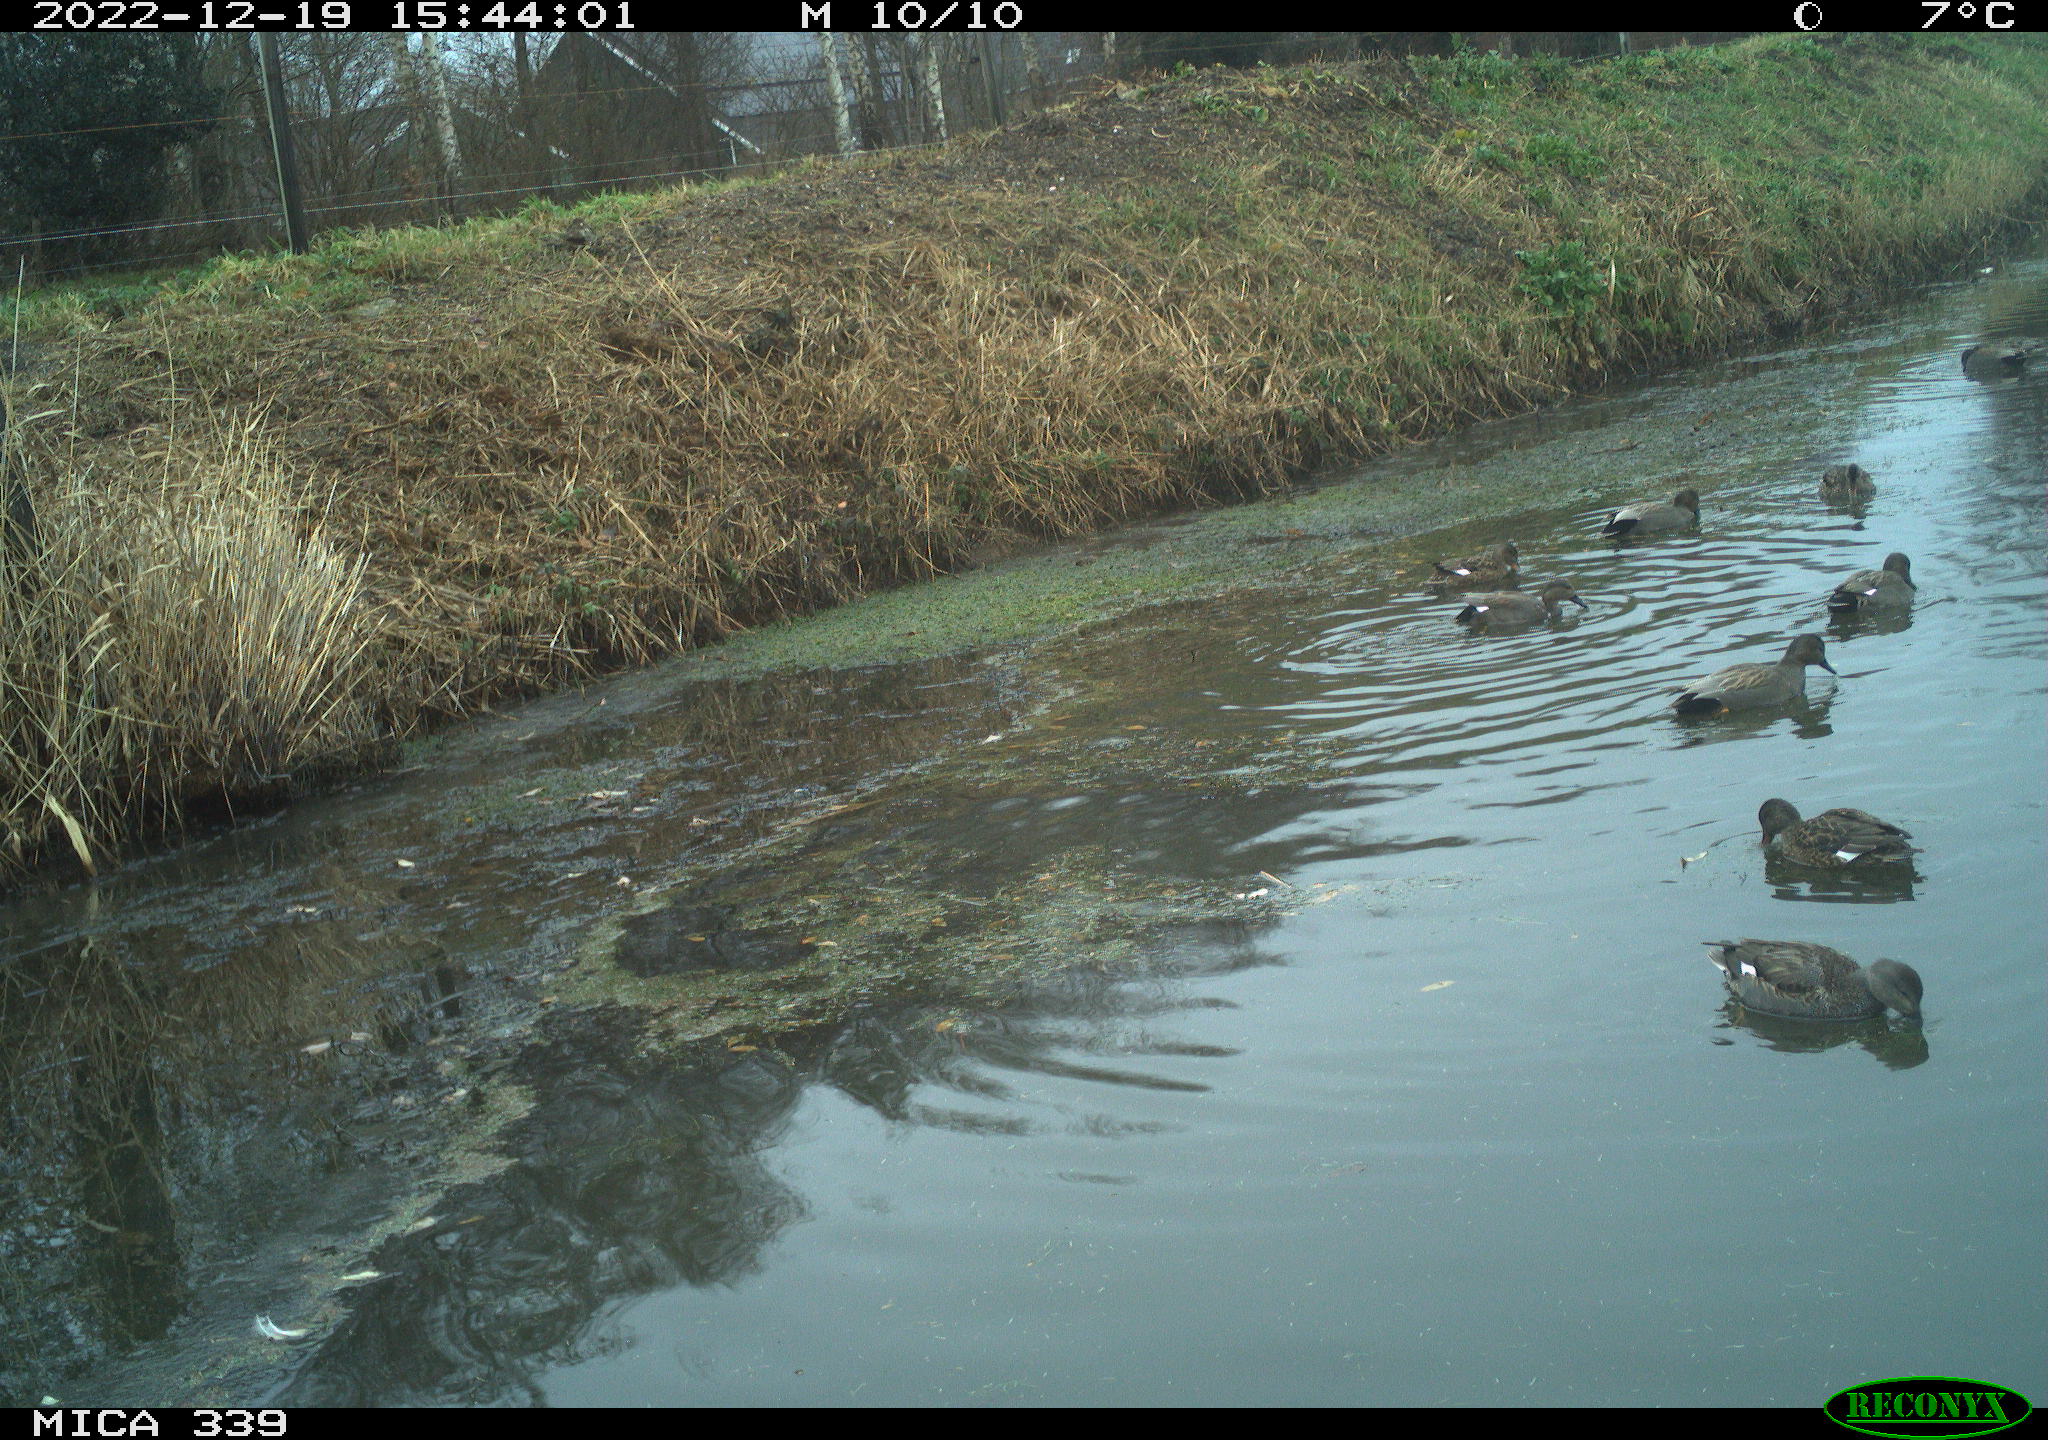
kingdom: Animalia
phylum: Chordata
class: Aves
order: Anseriformes
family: Anatidae
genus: Anas
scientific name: Anas
